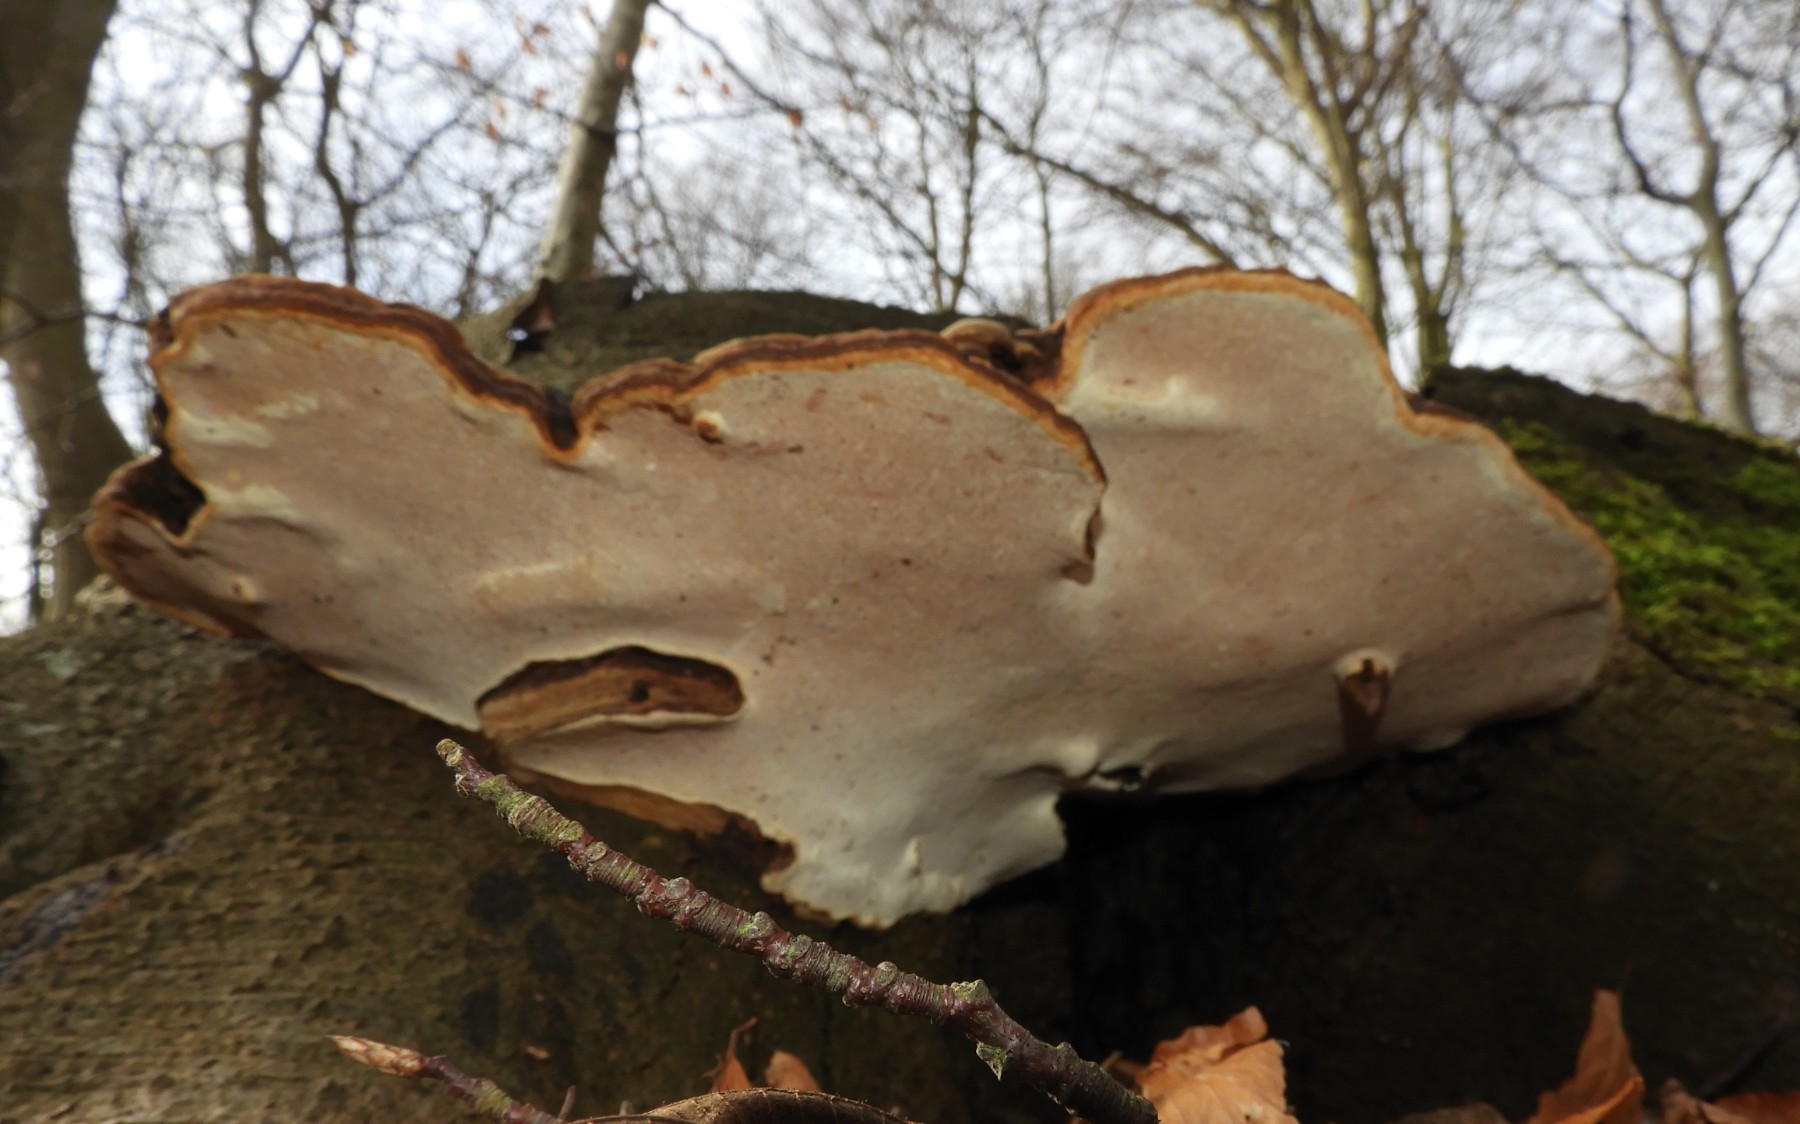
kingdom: Fungi
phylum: Basidiomycota
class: Agaricomycetes
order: Polyporales
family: Polyporaceae
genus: Ganoderma
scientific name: Ganoderma applanatum
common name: flad lakporesvamp
